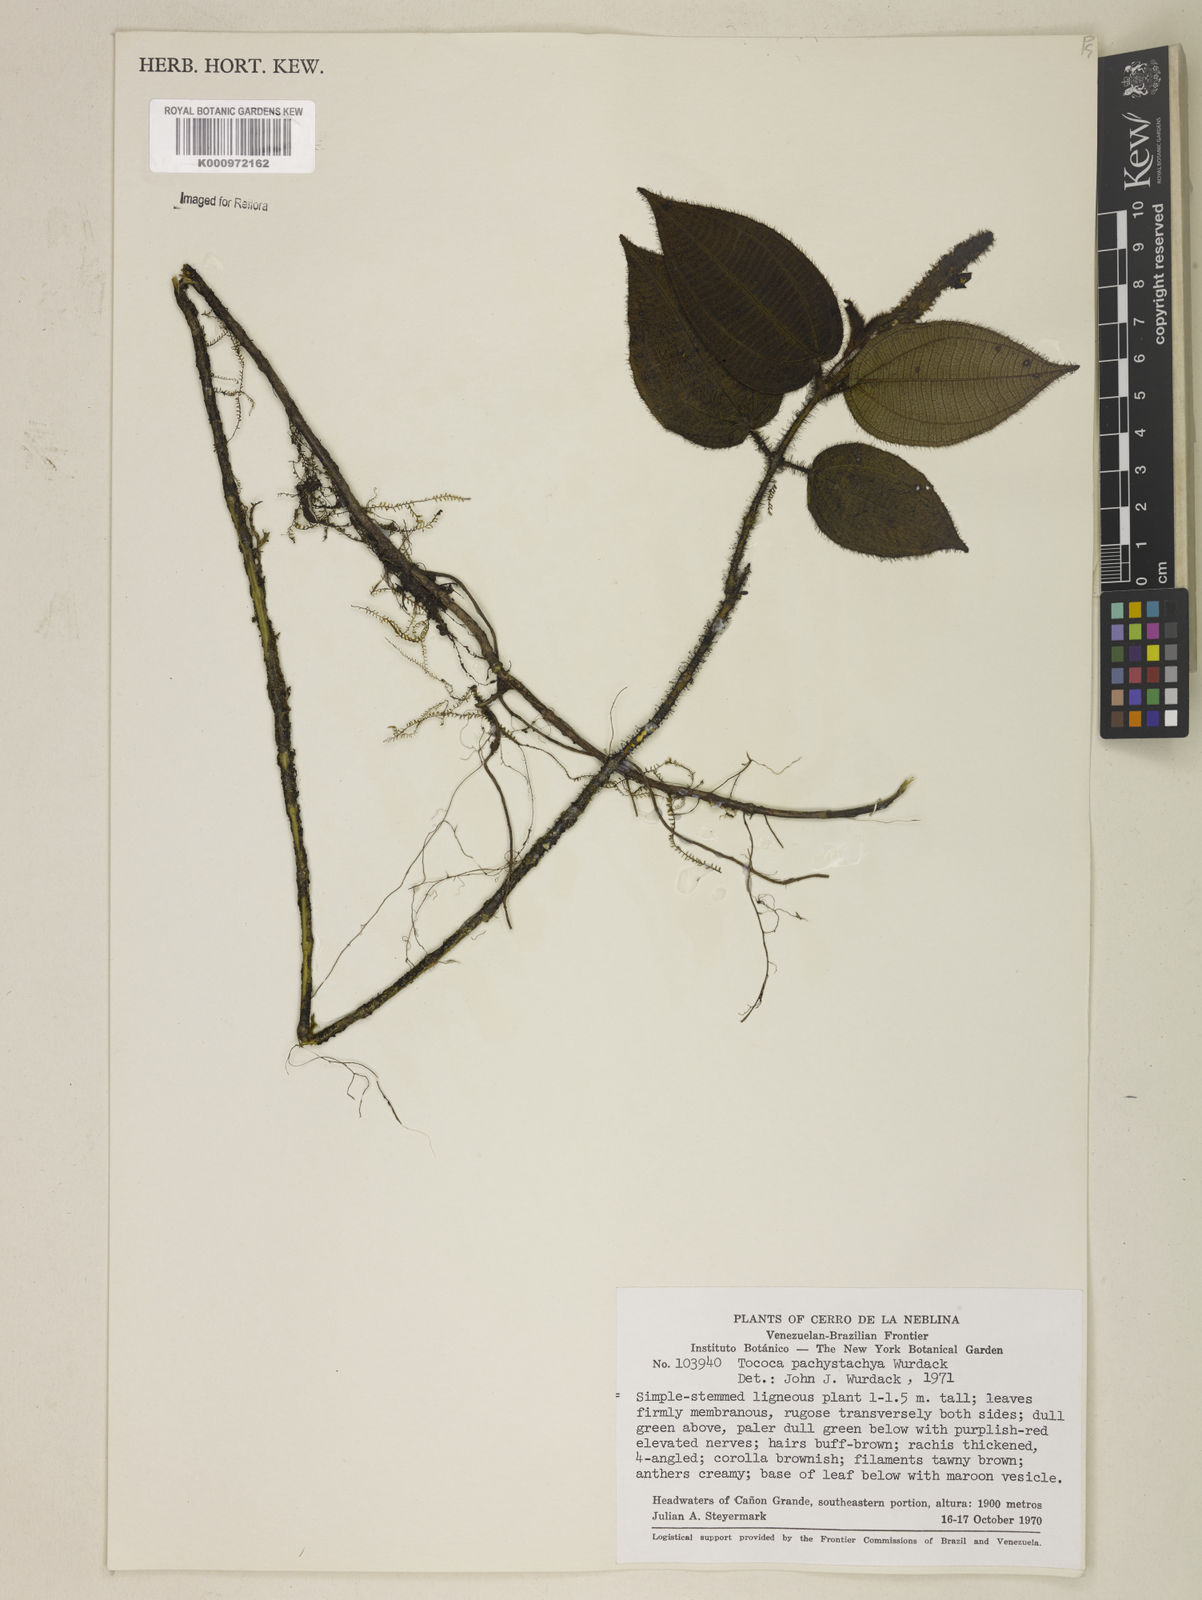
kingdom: Plantae
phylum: Tracheophyta
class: Magnoliopsida
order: Myrtales
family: Melastomataceae
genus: Miconia
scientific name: Miconia pachystachya
